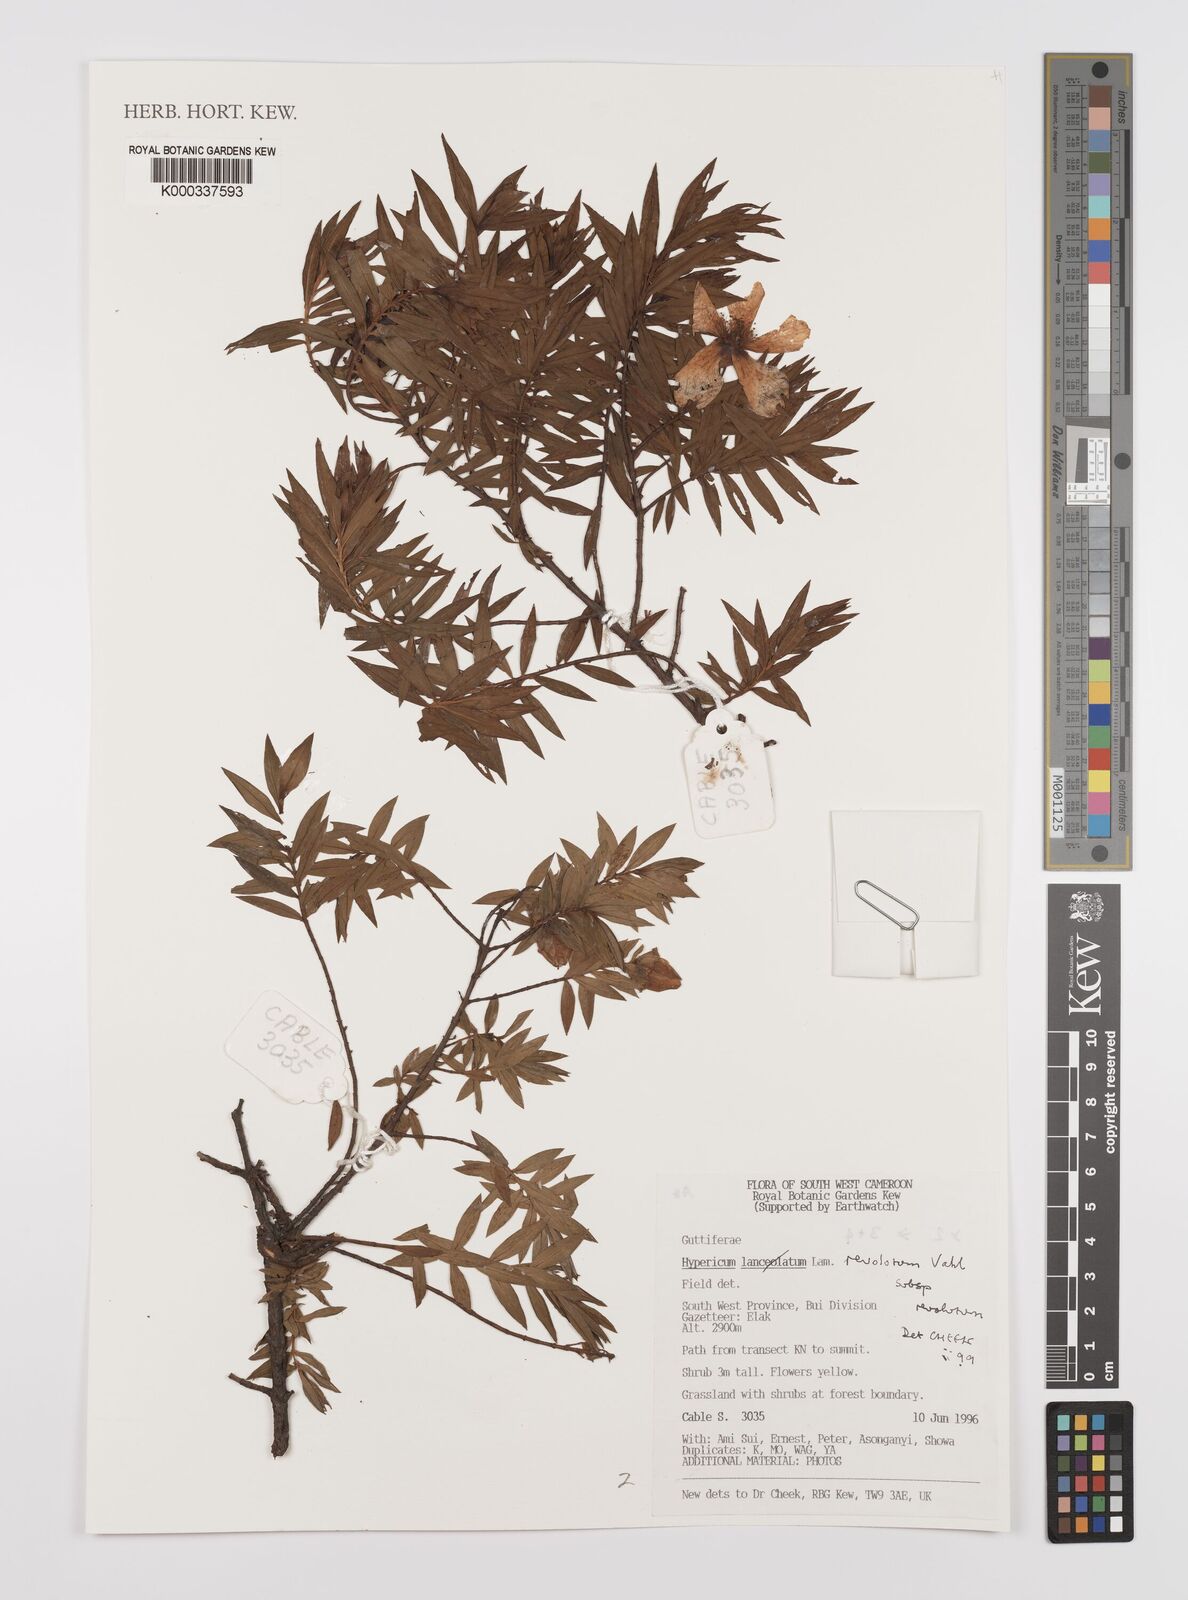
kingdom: Plantae
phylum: Tracheophyta
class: Magnoliopsida
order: Malpighiales
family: Hypericaceae
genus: Hypericum
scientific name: Hypericum revolutum
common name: Curry bush
